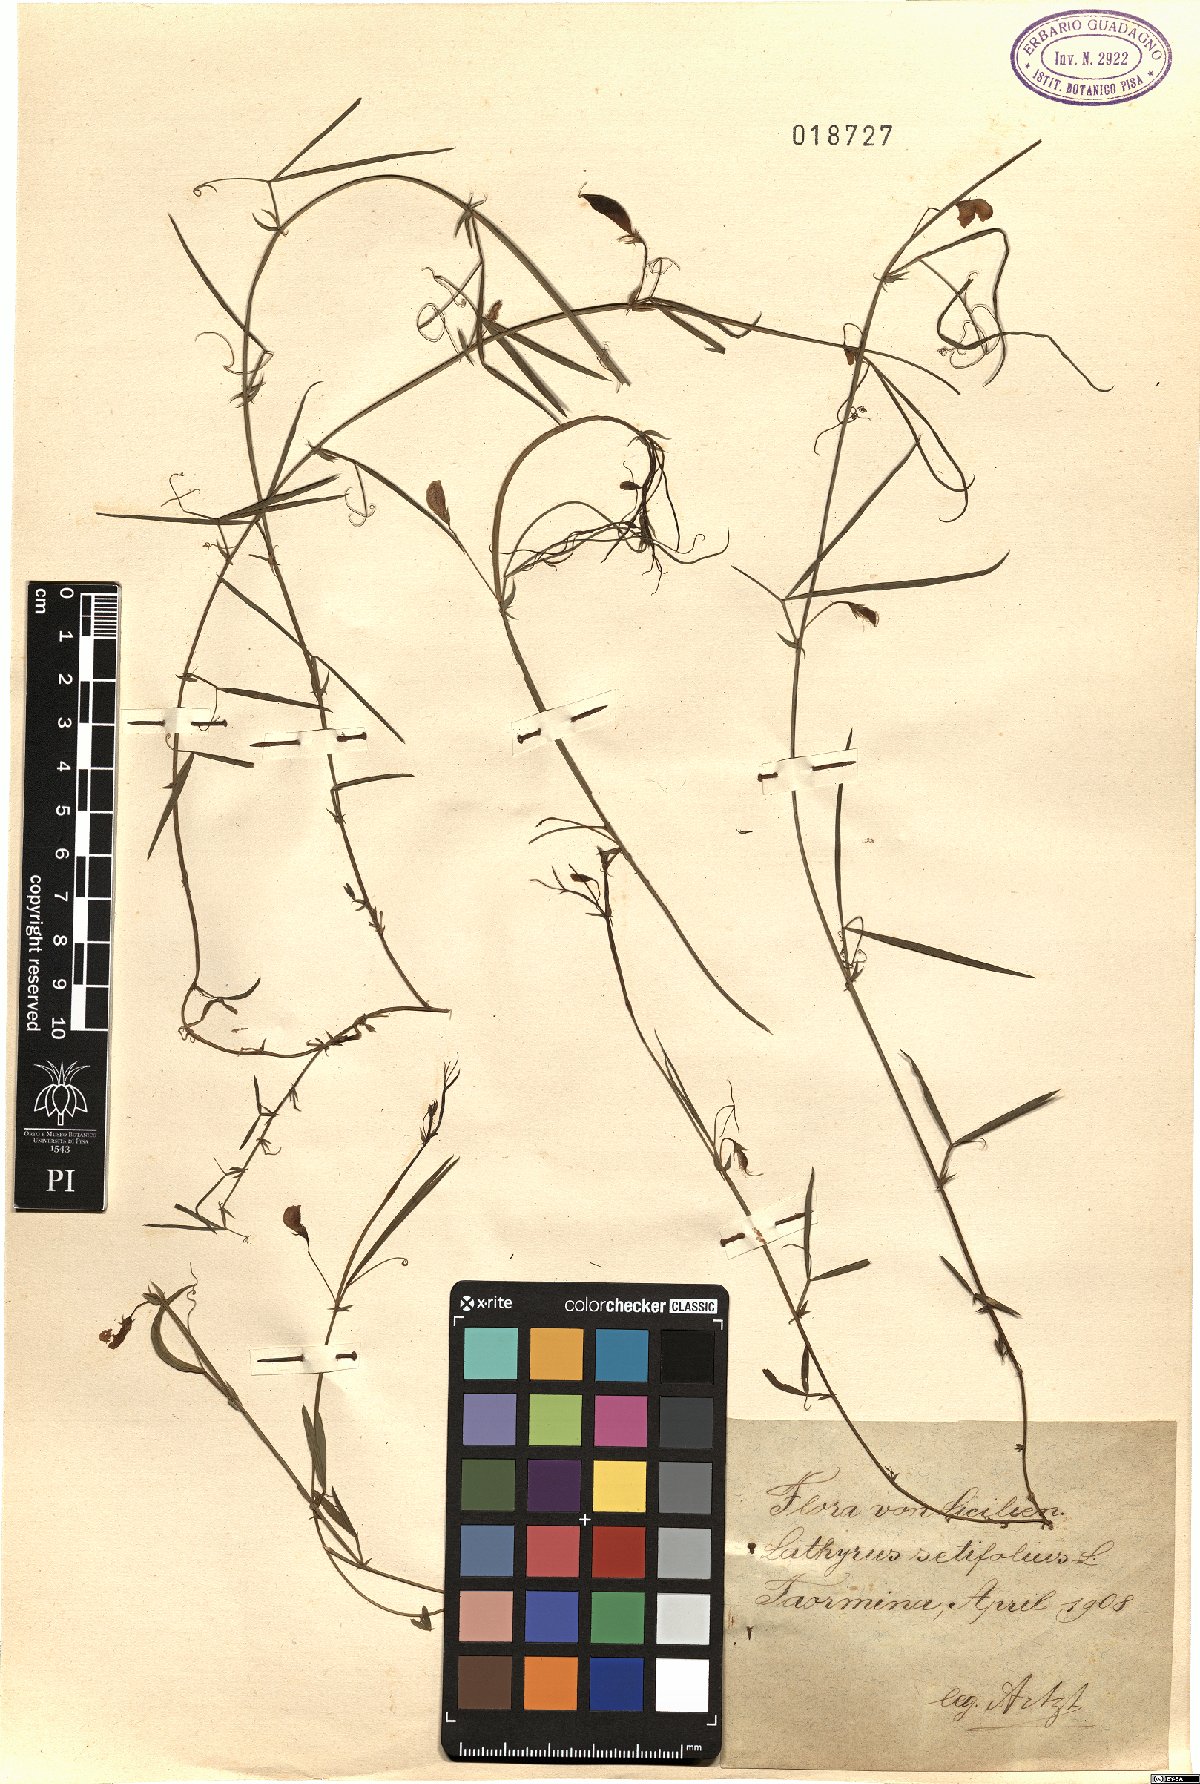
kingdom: Plantae
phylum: Tracheophyta
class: Magnoliopsida
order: Fabales
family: Fabaceae
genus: Lathyrus
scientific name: Lathyrus setifolius
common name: Brown vetchling
